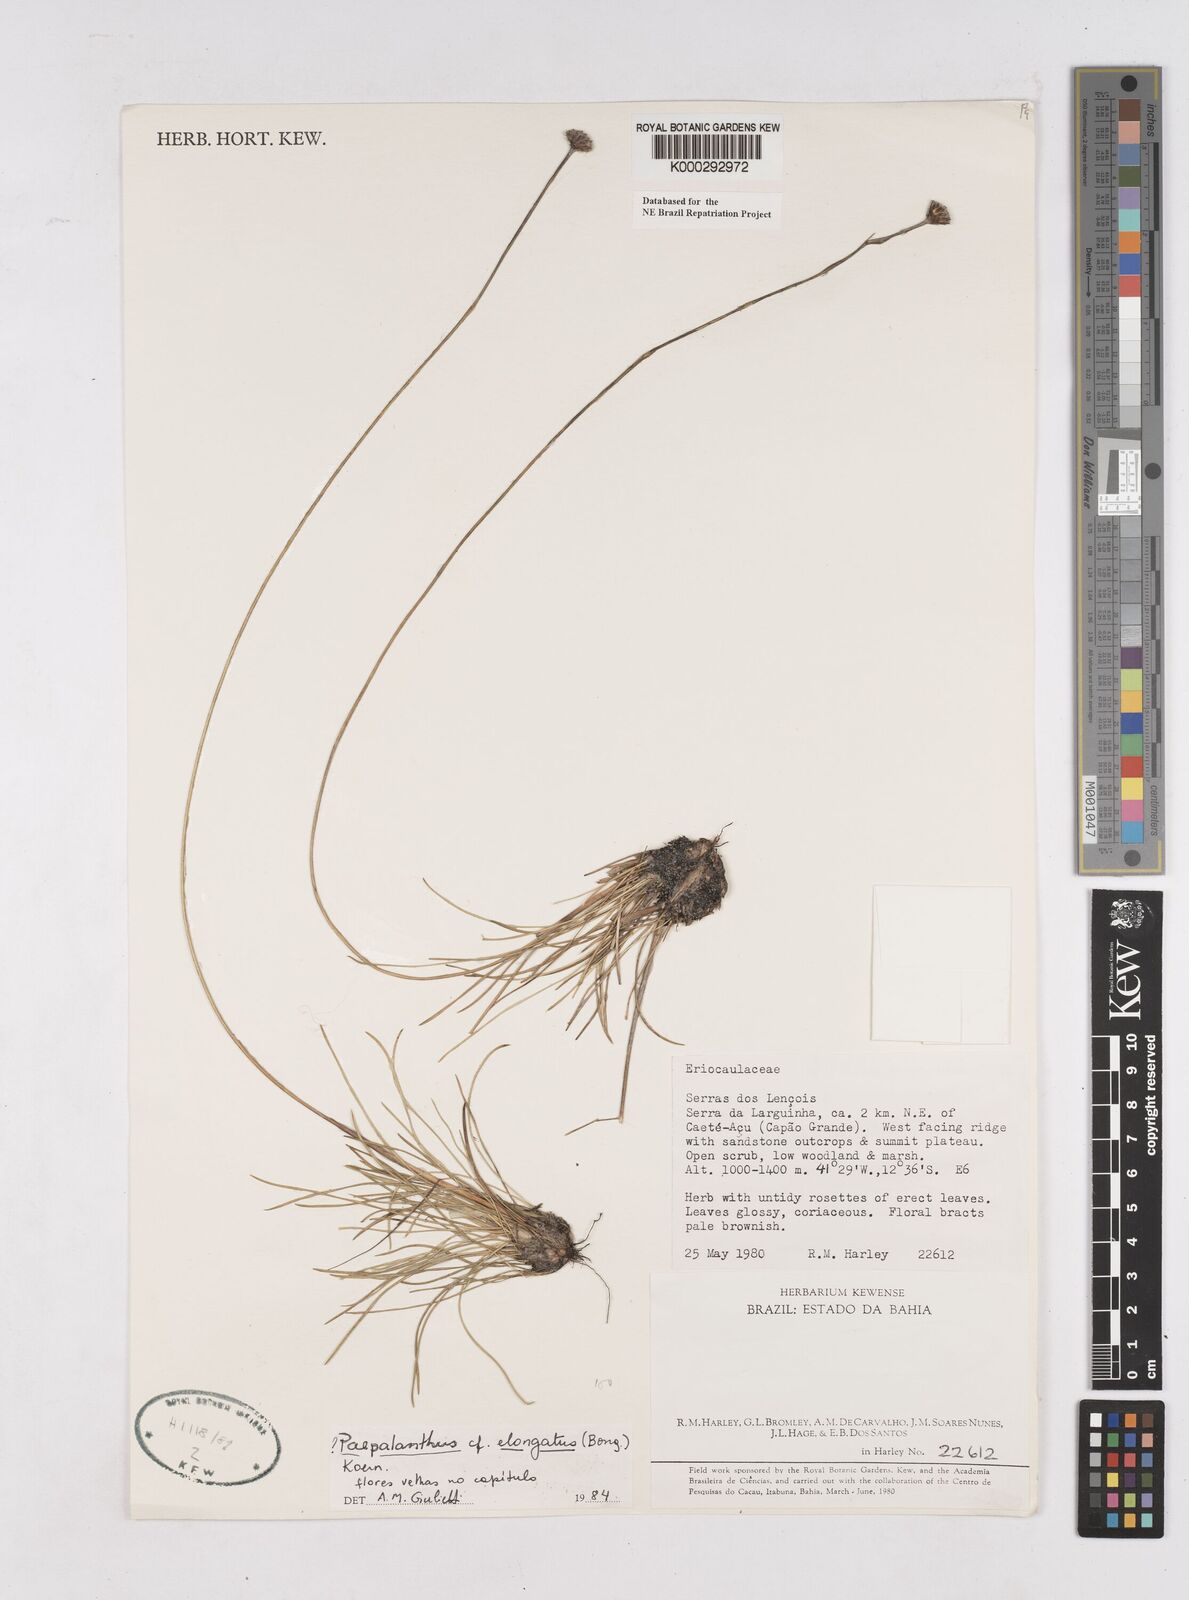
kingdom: Plantae
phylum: Tracheophyta
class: Liliopsida
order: Poales
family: Eriocaulaceae
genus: Paepalanthus
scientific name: Paepalanthus
